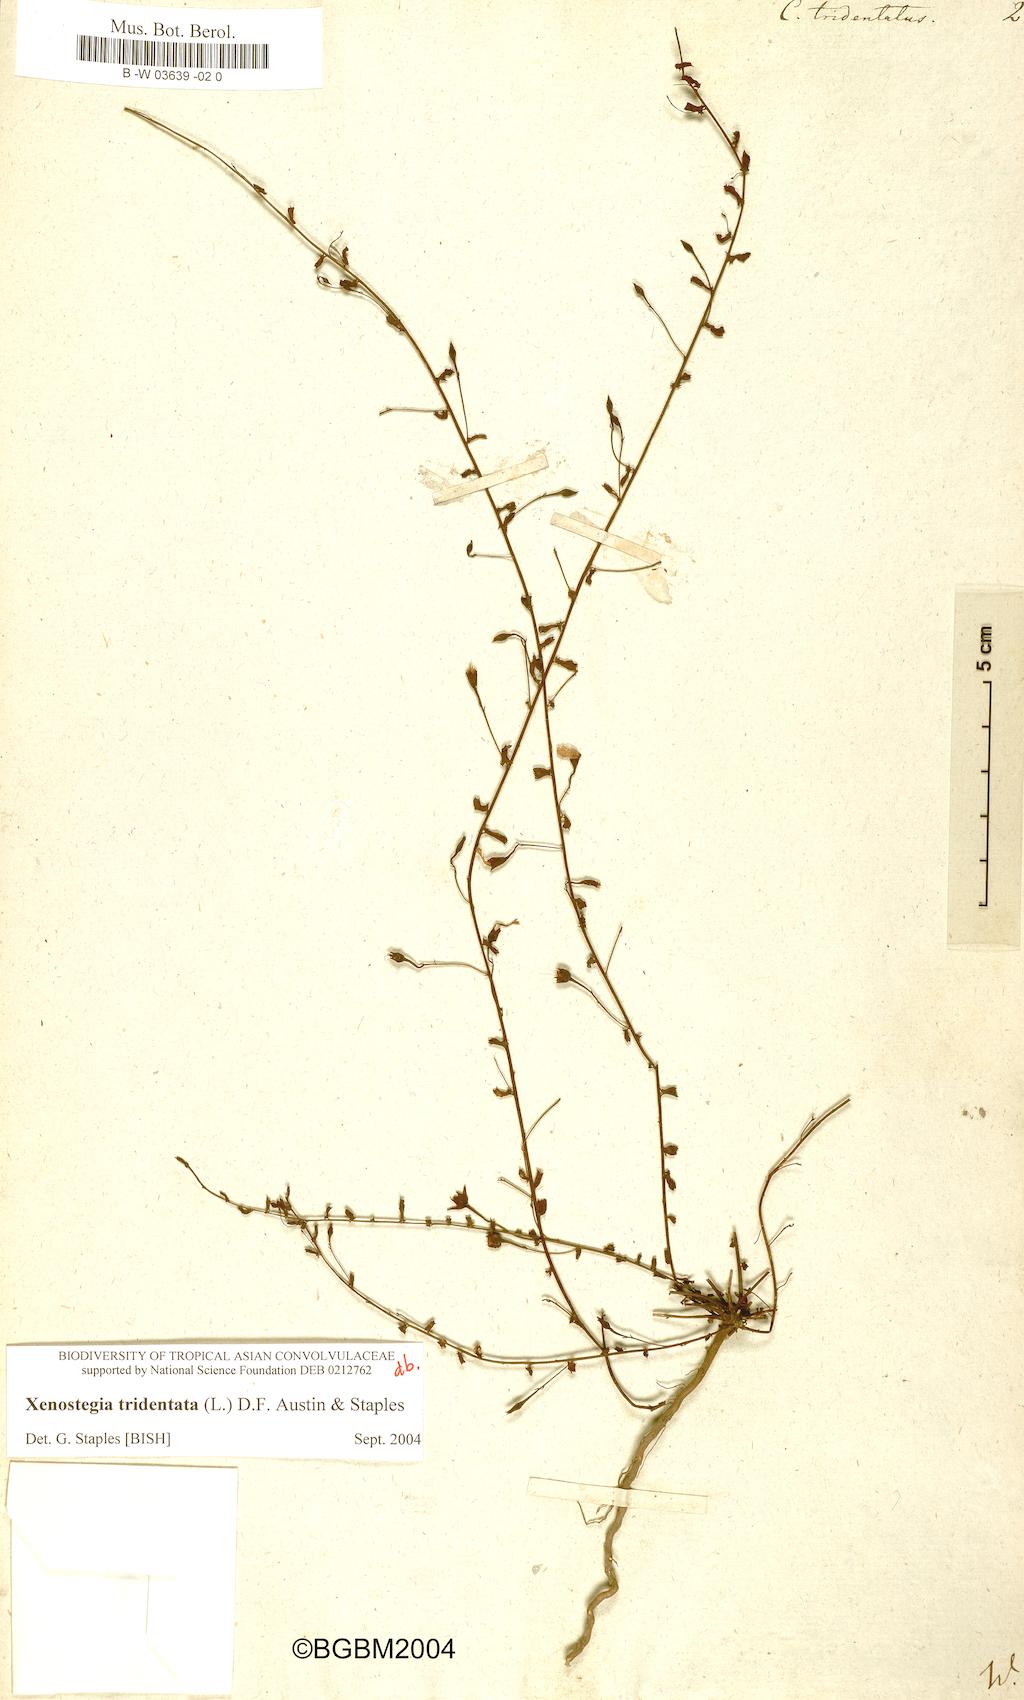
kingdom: Plantae
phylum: Tracheophyta
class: Magnoliopsida
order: Solanales
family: Convolvulaceae
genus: Xenostegia
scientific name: Xenostegia tridentata
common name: African morningvine
